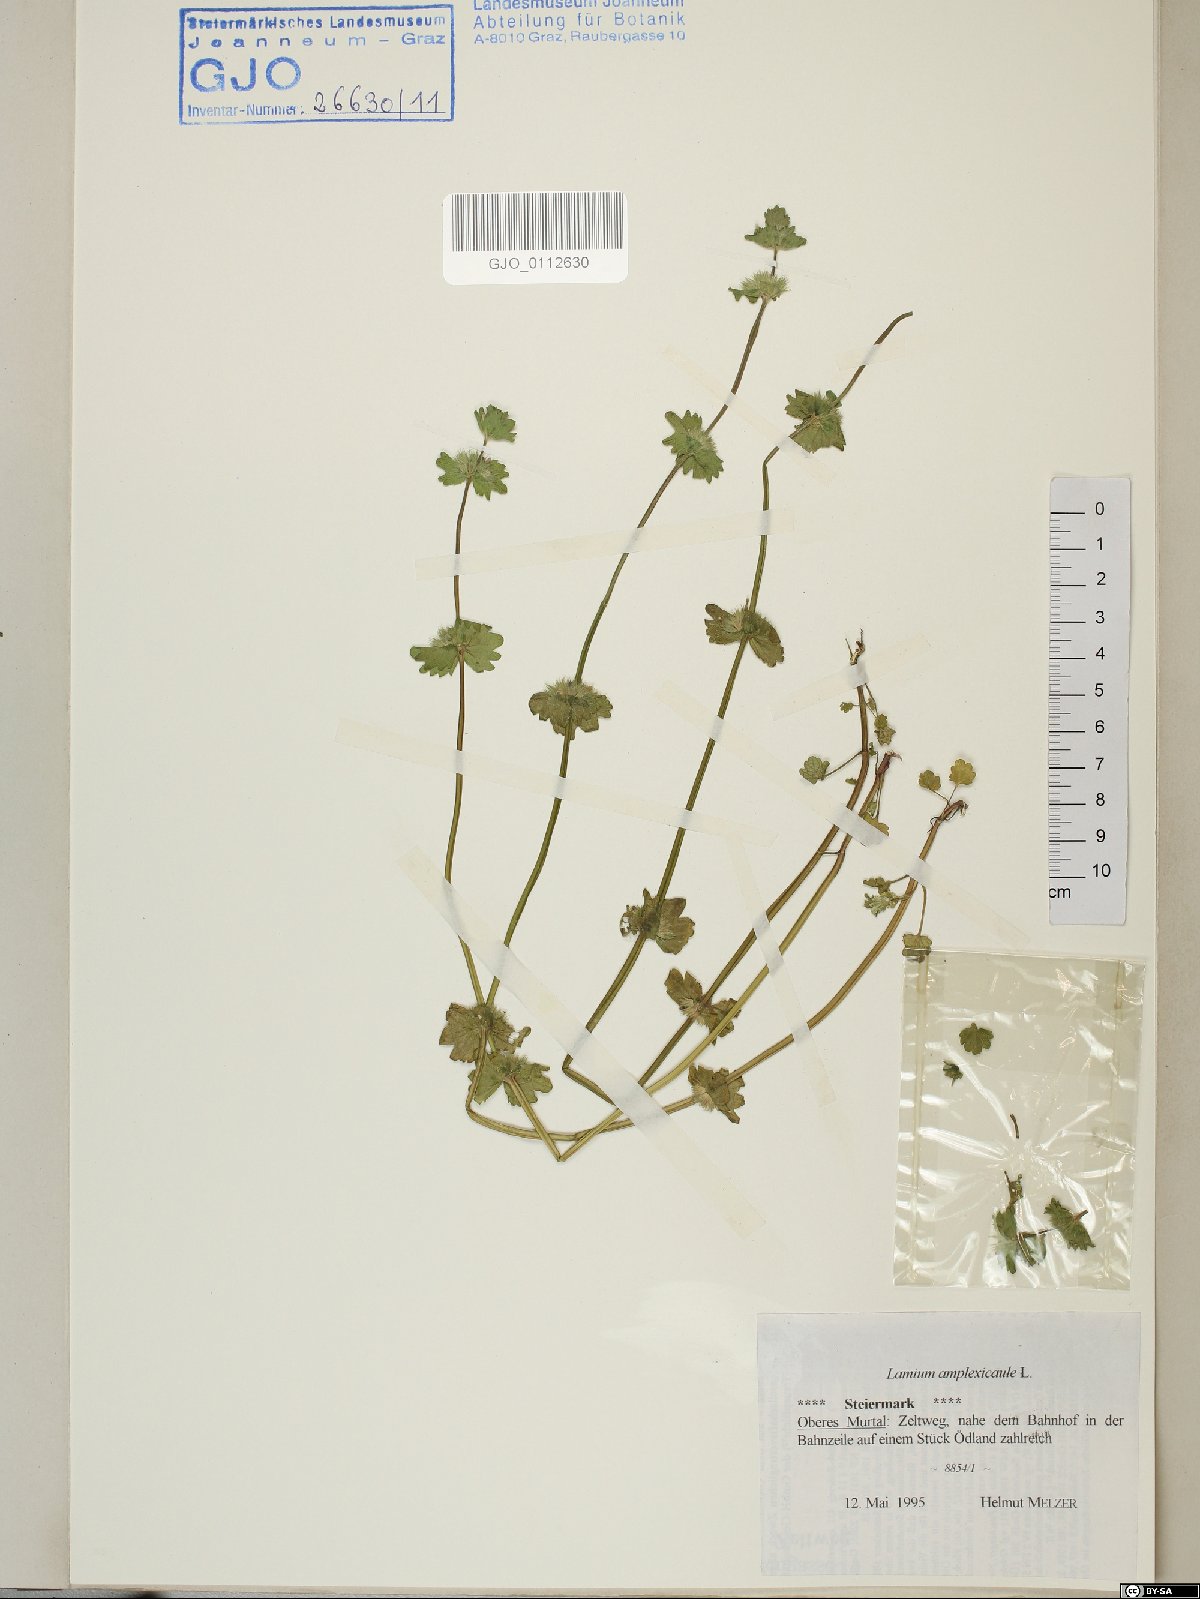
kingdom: Plantae
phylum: Tracheophyta
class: Magnoliopsida
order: Lamiales
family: Lamiaceae
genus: Lamium
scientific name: Lamium amplexicaule
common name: Henbit dead-nettle
